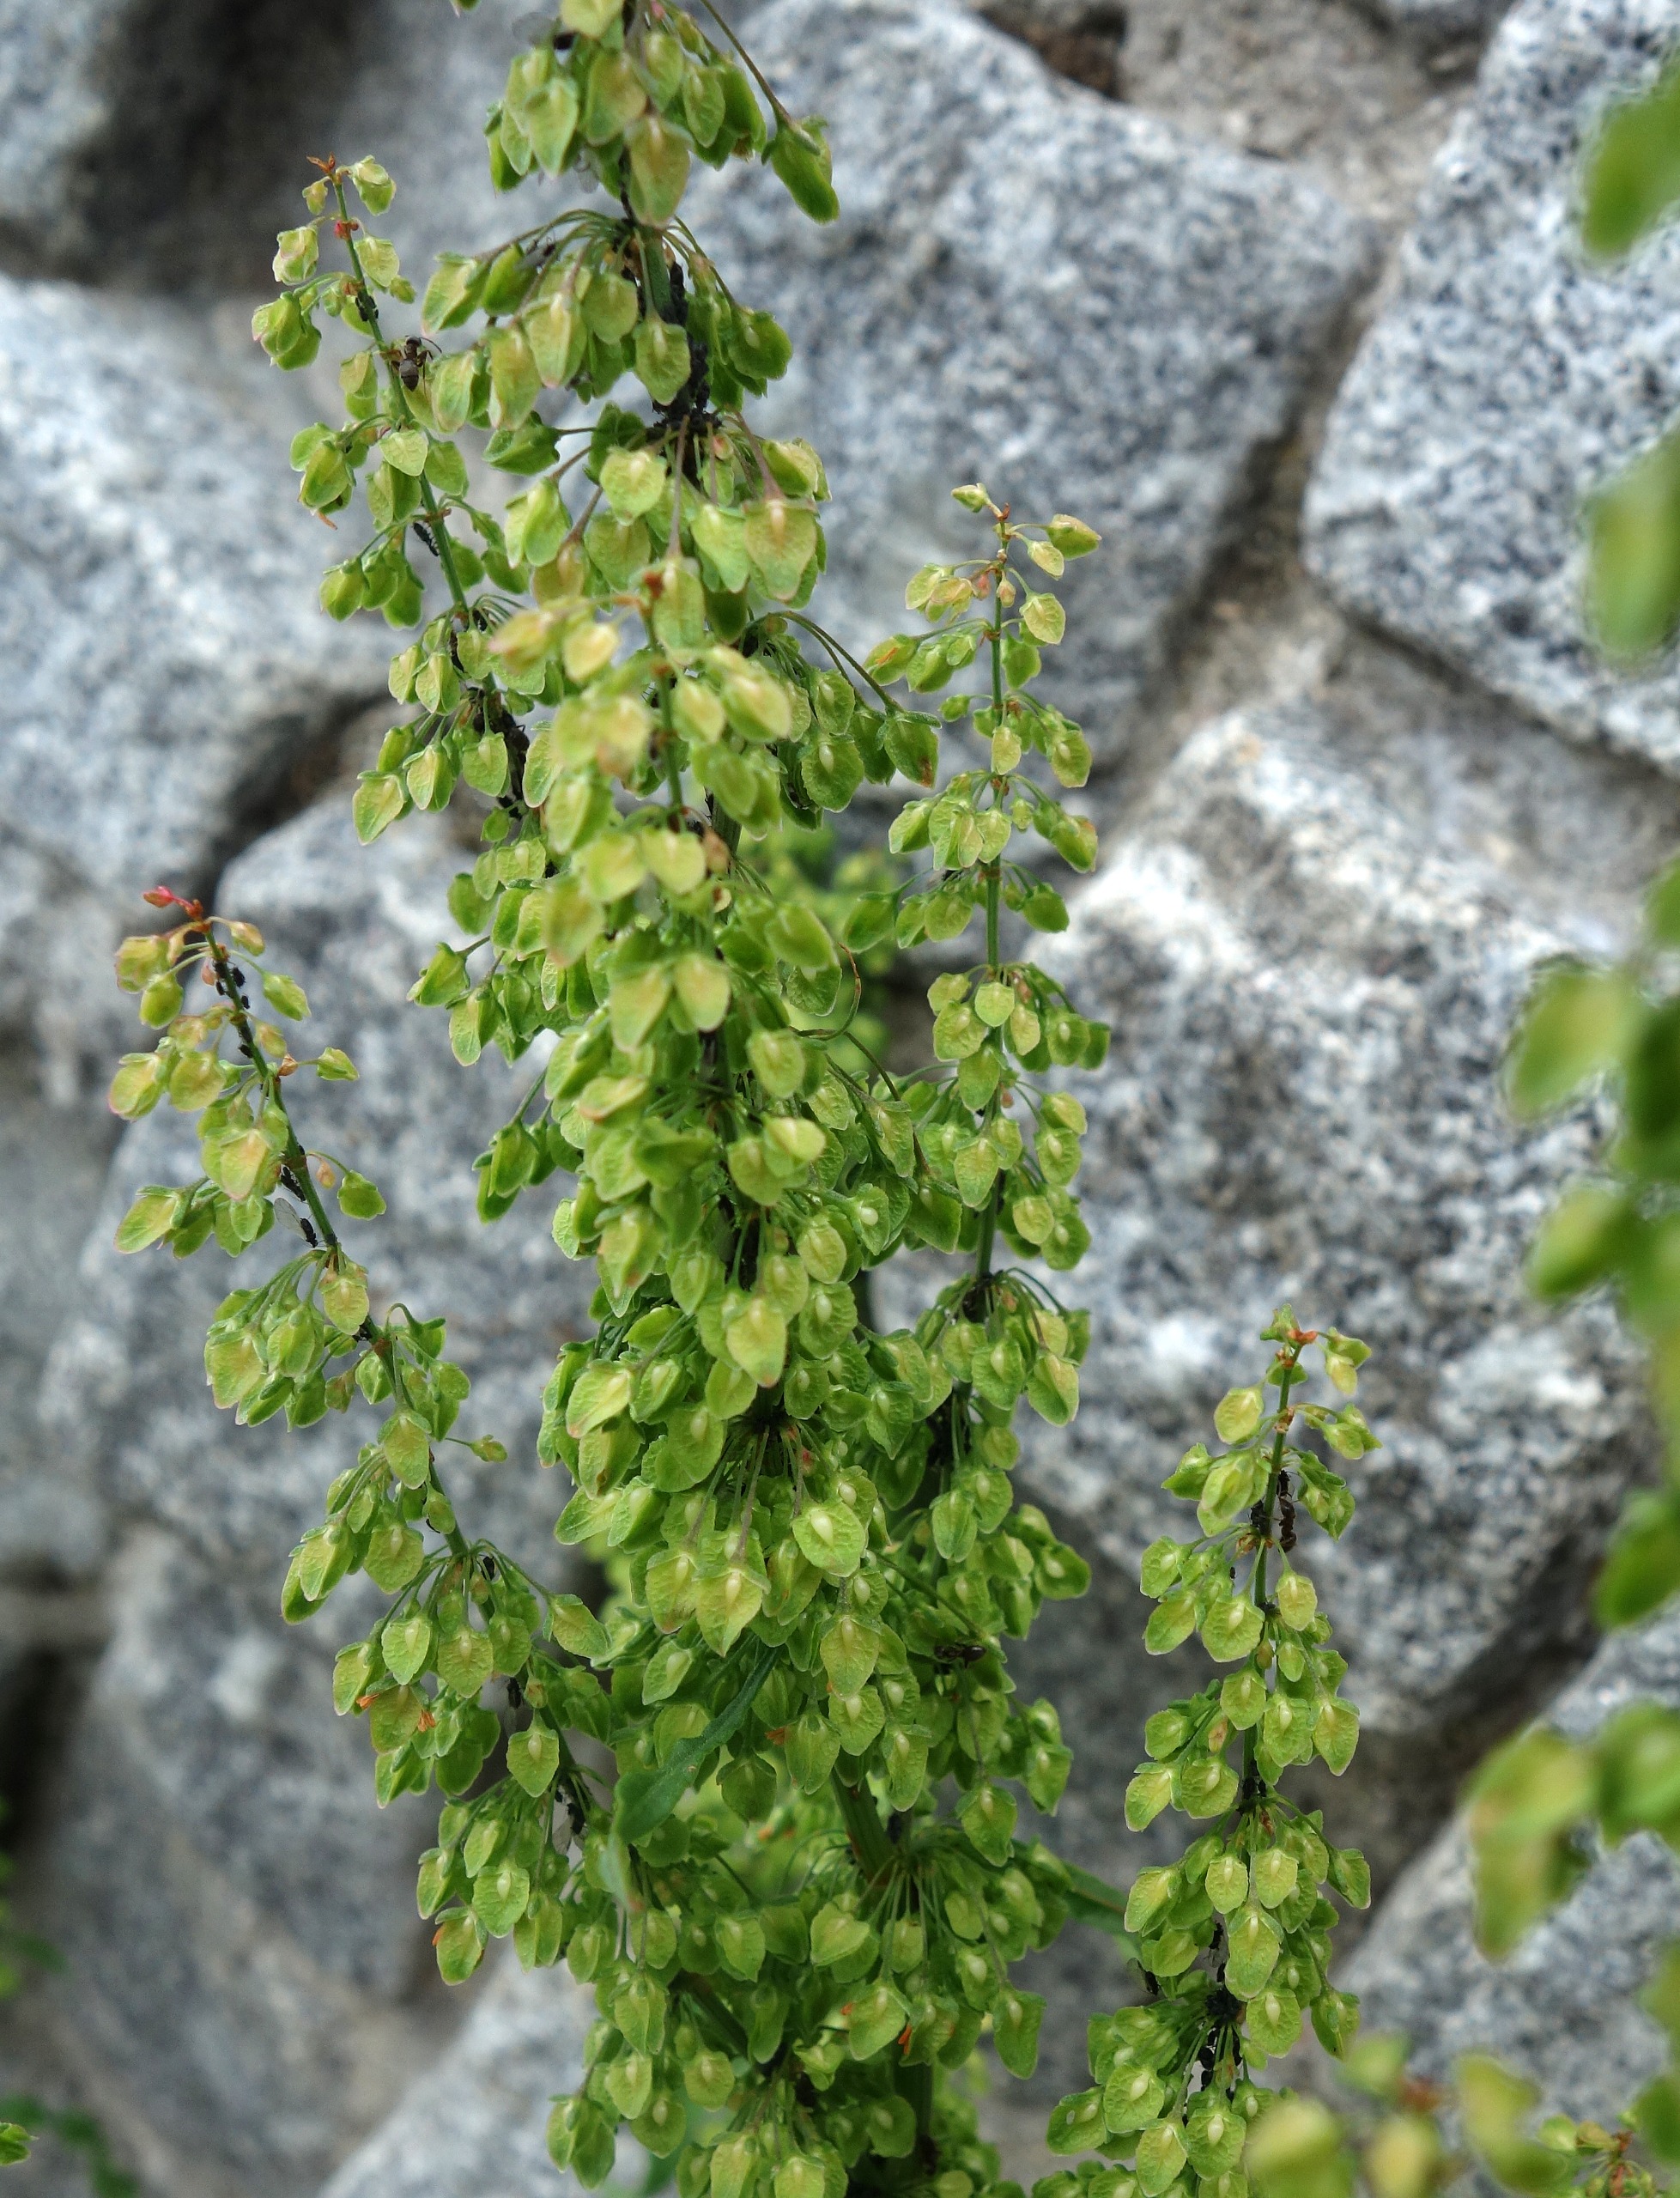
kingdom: Plantae
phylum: Tracheophyta
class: Magnoliopsida
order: Caryophyllales
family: Polygonaceae
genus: Rumex
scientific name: Rumex crispus
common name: Kruset skræppe
